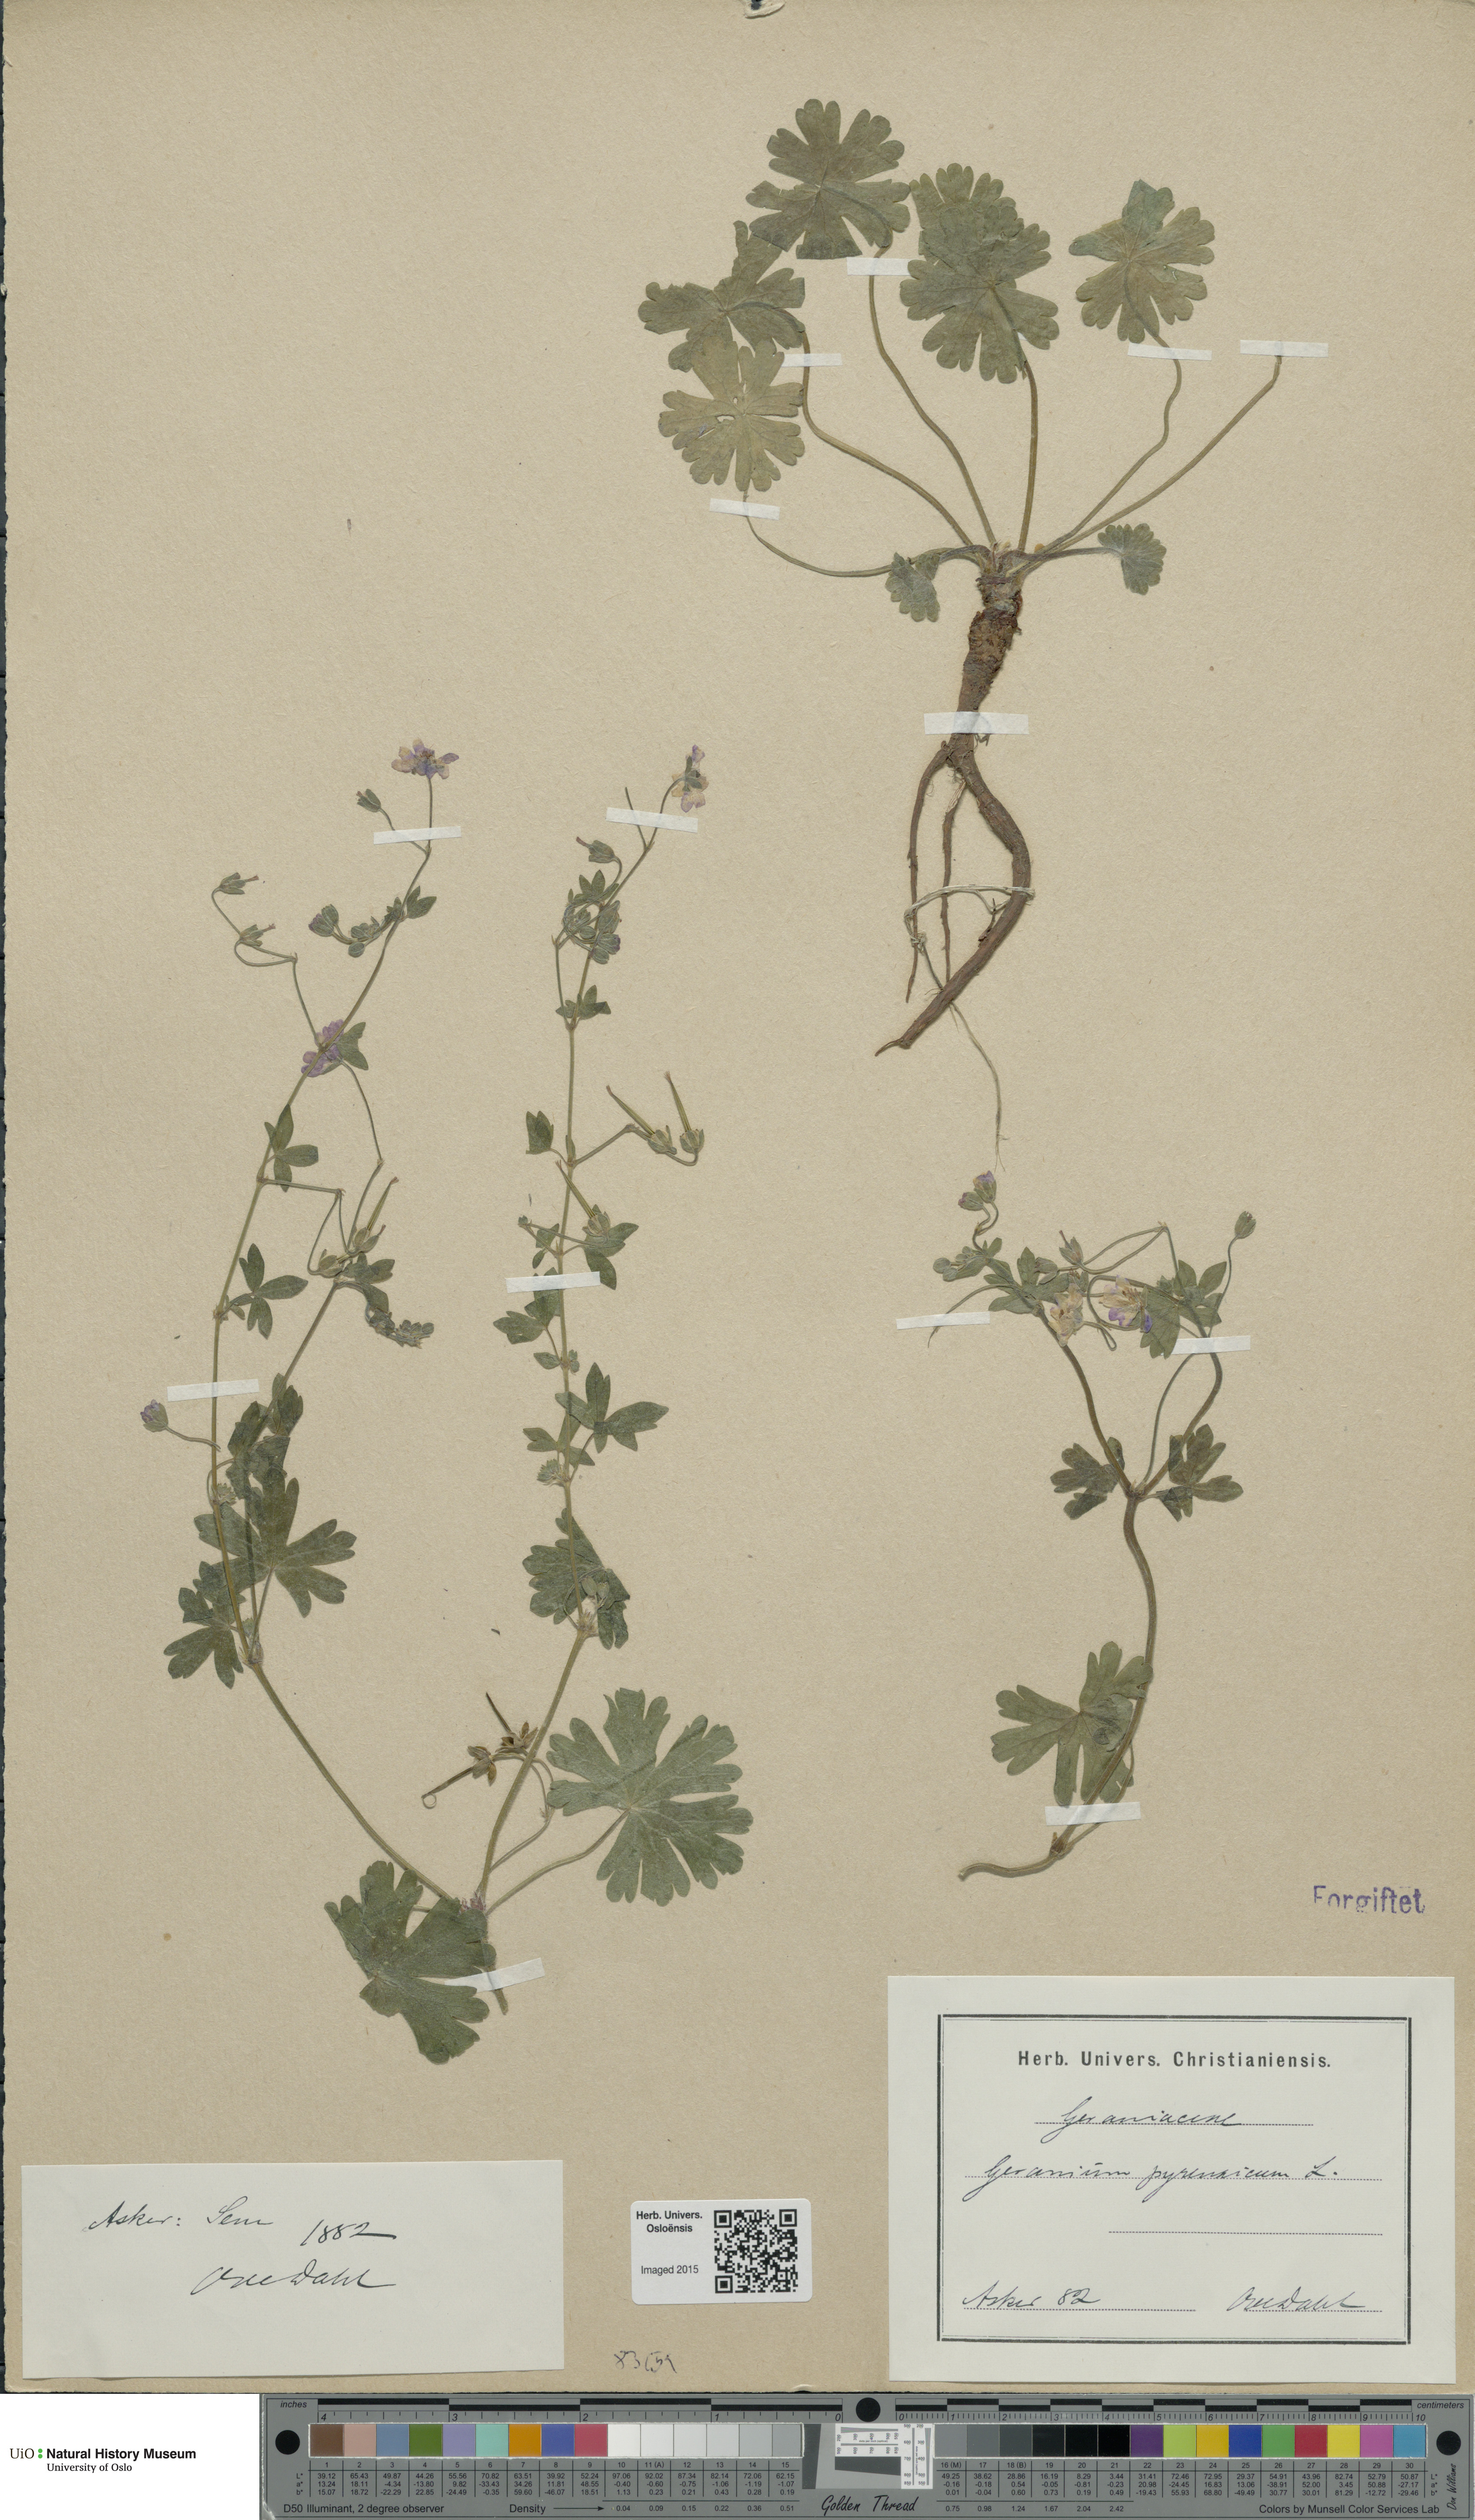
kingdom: Plantae
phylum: Tracheophyta
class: Magnoliopsida
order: Geraniales
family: Geraniaceae
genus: Geranium
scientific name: Geranium pyrenaicum
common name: Hedgerow crane's-bill
